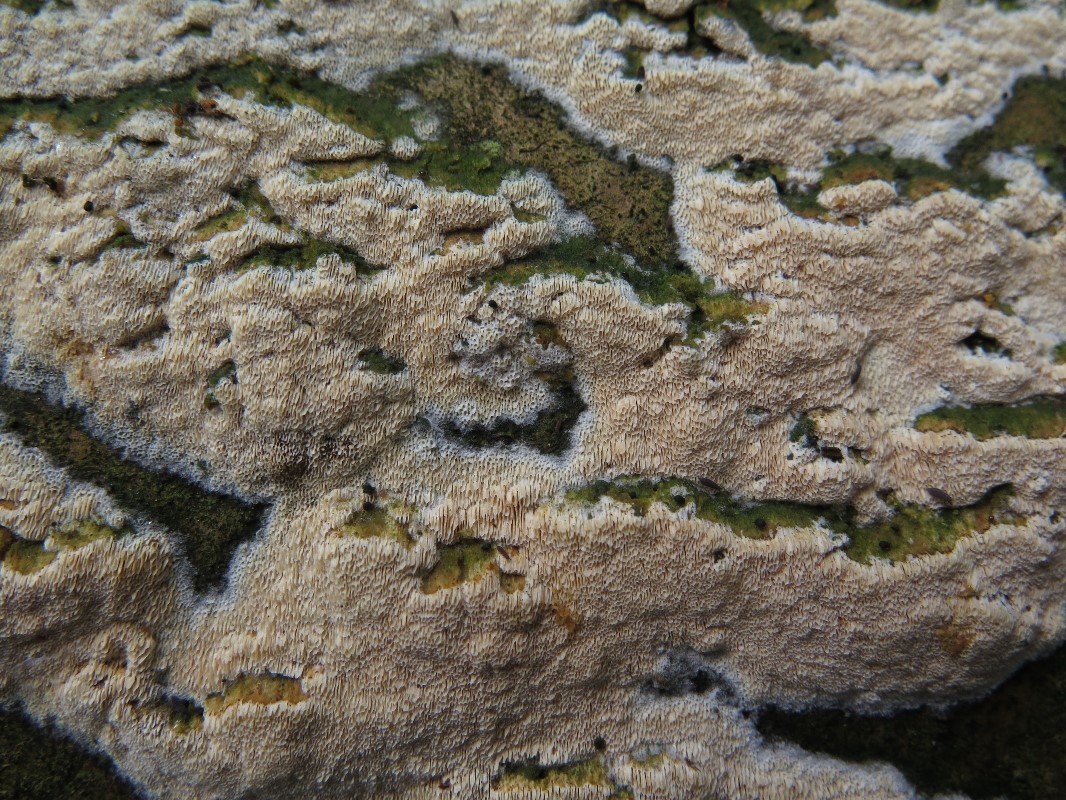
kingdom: Fungi
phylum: Basidiomycota
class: Agaricomycetes
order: Hymenochaetales
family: Hyphodontiaceae
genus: Hyphodontia
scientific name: Hyphodontia
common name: nålehinde
